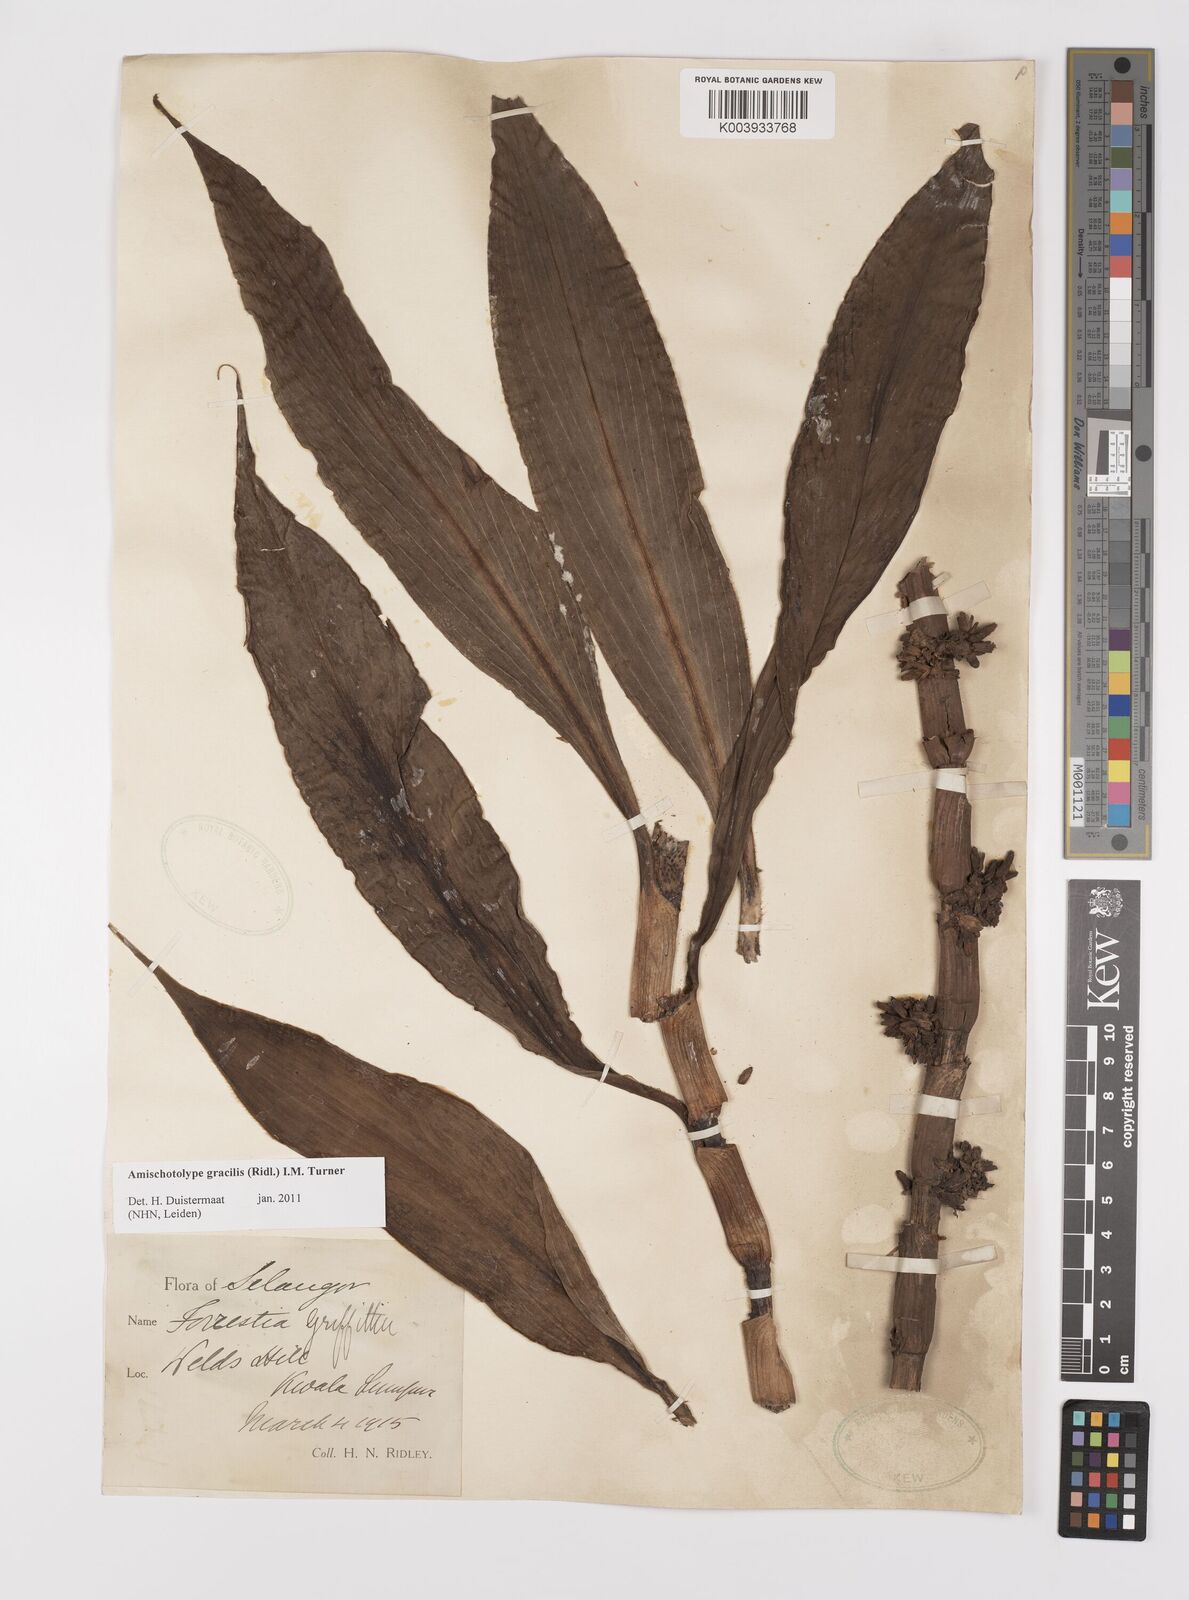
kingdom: Plantae
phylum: Tracheophyta
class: Liliopsida
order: Commelinales
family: Commelinaceae
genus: Amischotolype
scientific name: Amischotolype gracilis
